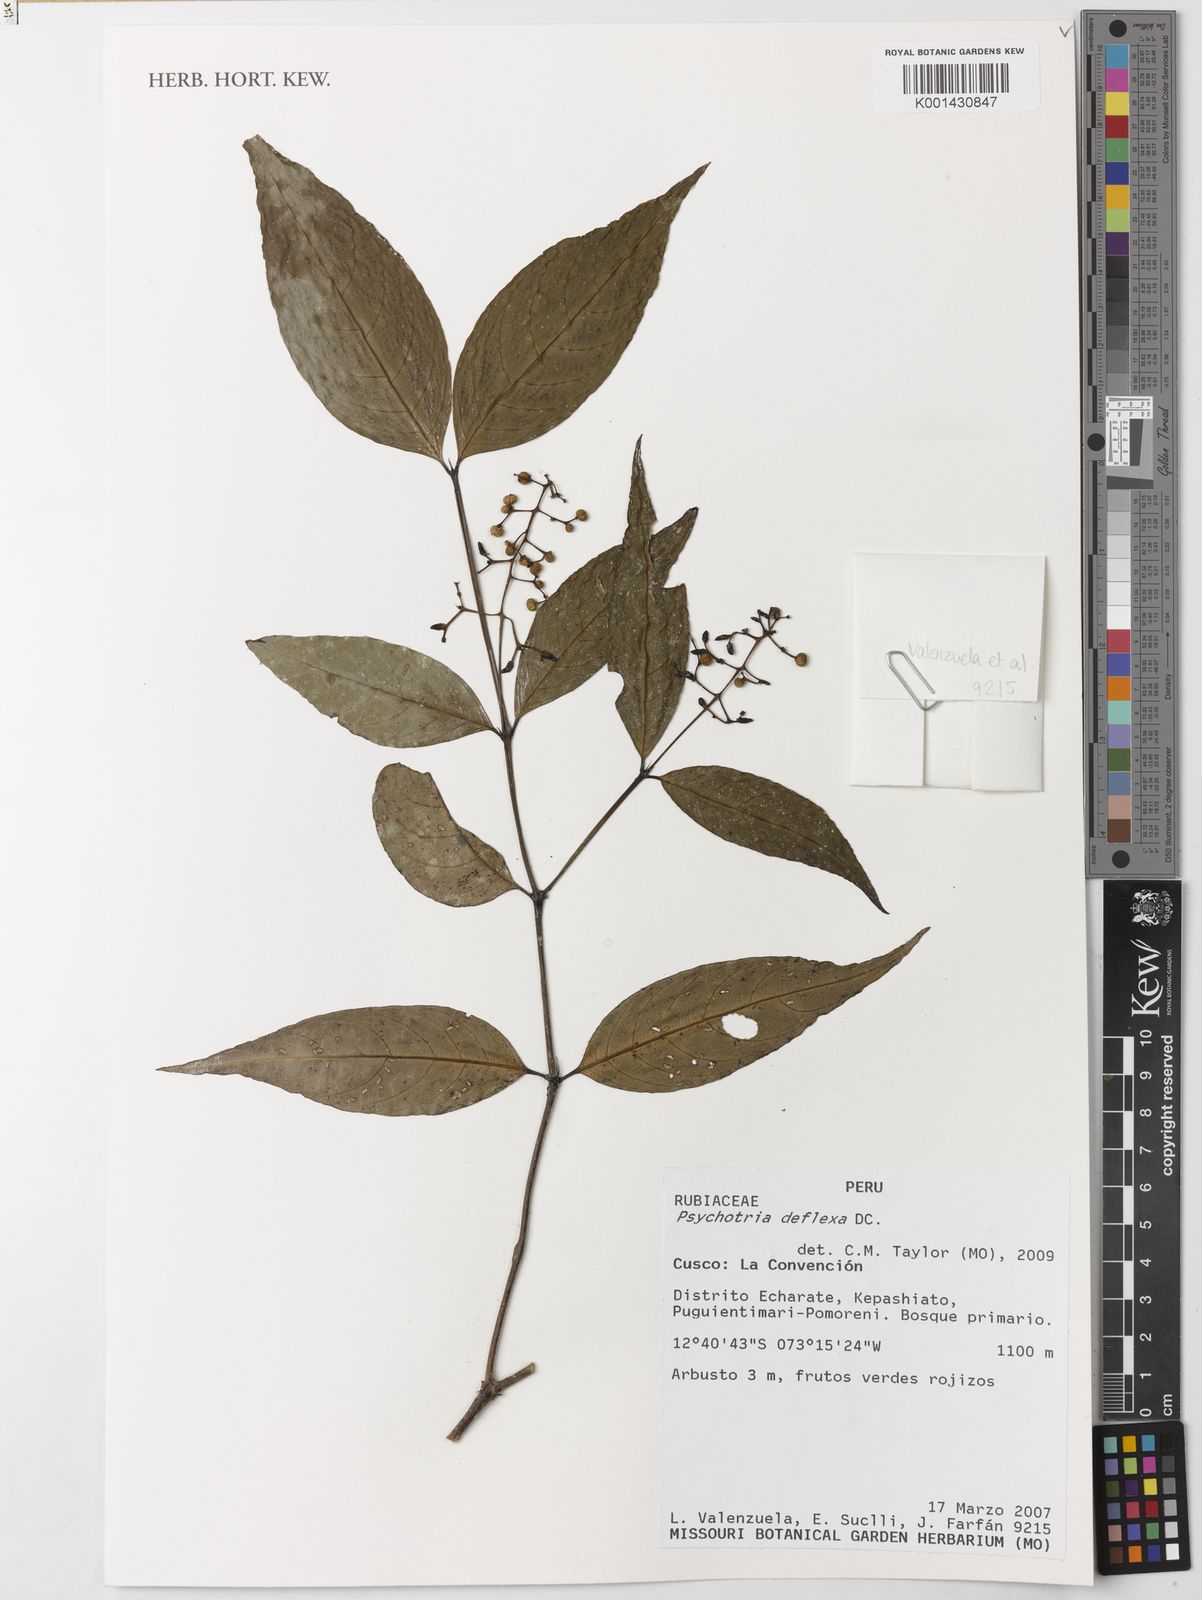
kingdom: Plantae
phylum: Tracheophyta
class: Magnoliopsida
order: Gentianales
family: Rubiaceae
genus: Palicourea
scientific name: Palicourea deflexa
